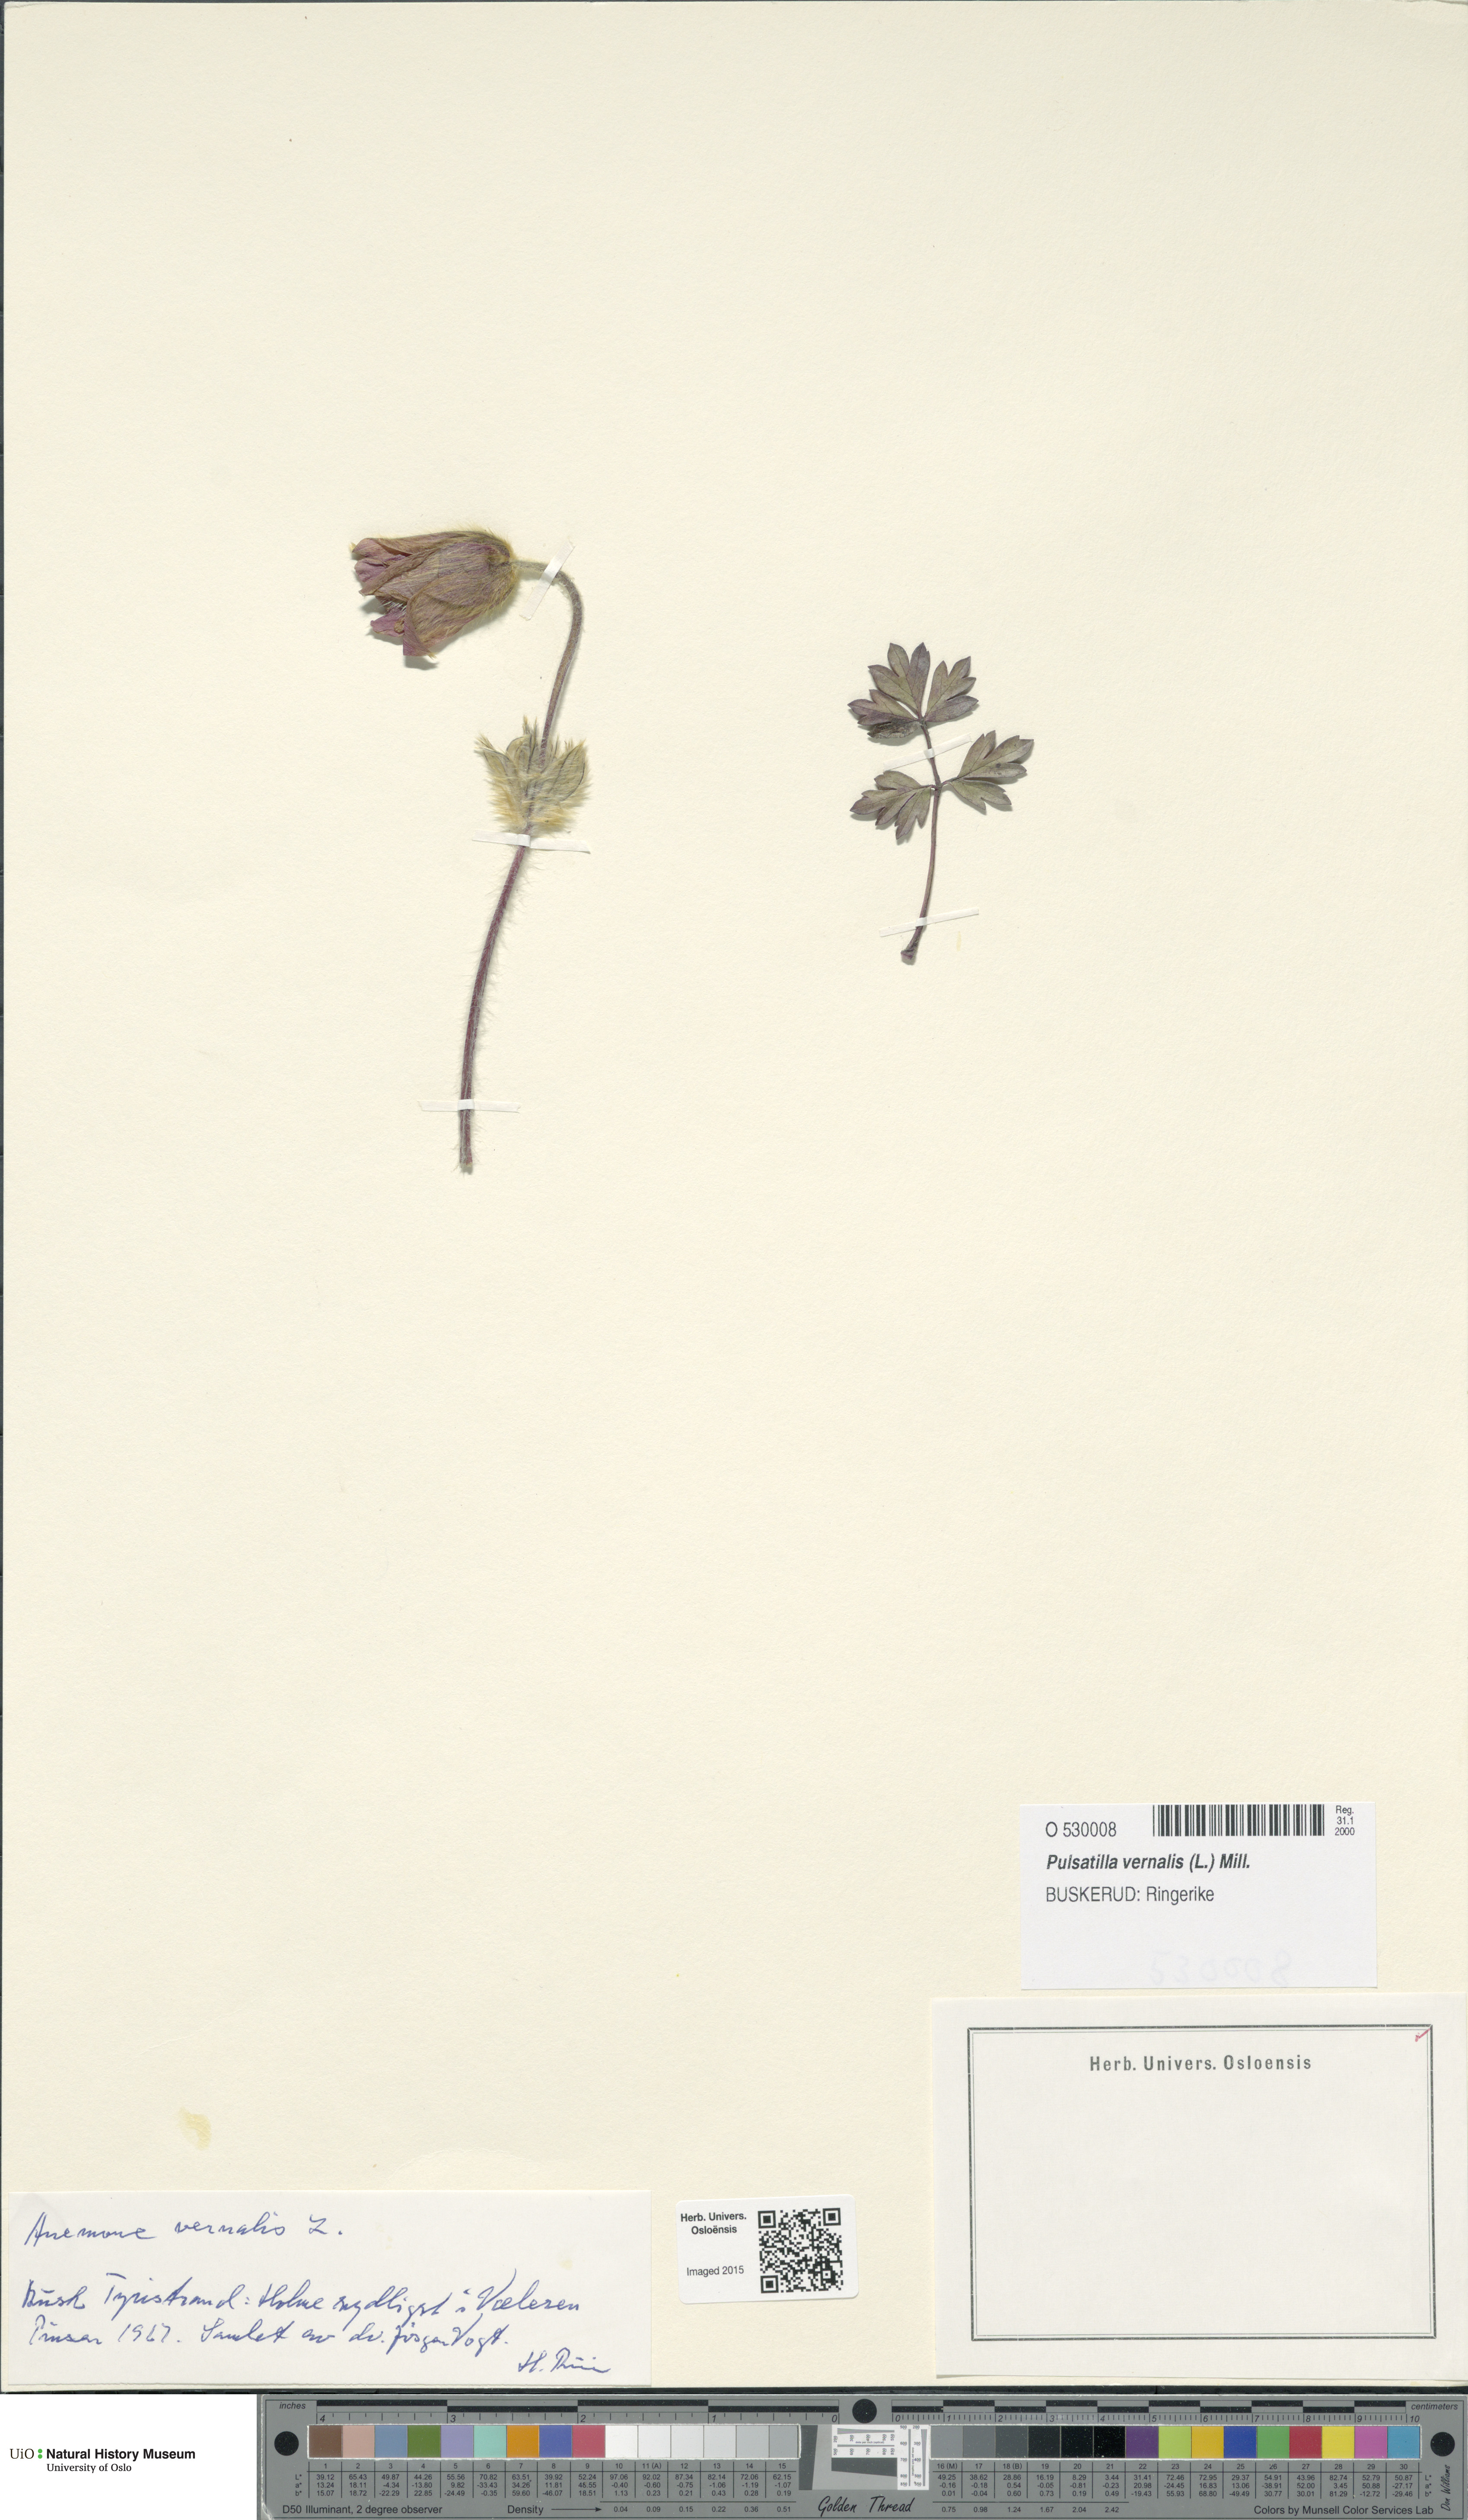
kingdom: Plantae
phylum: Tracheophyta
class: Magnoliopsida
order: Ranunculales
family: Ranunculaceae
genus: Pulsatilla
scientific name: Pulsatilla vernalis
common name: Spring pasque flower
